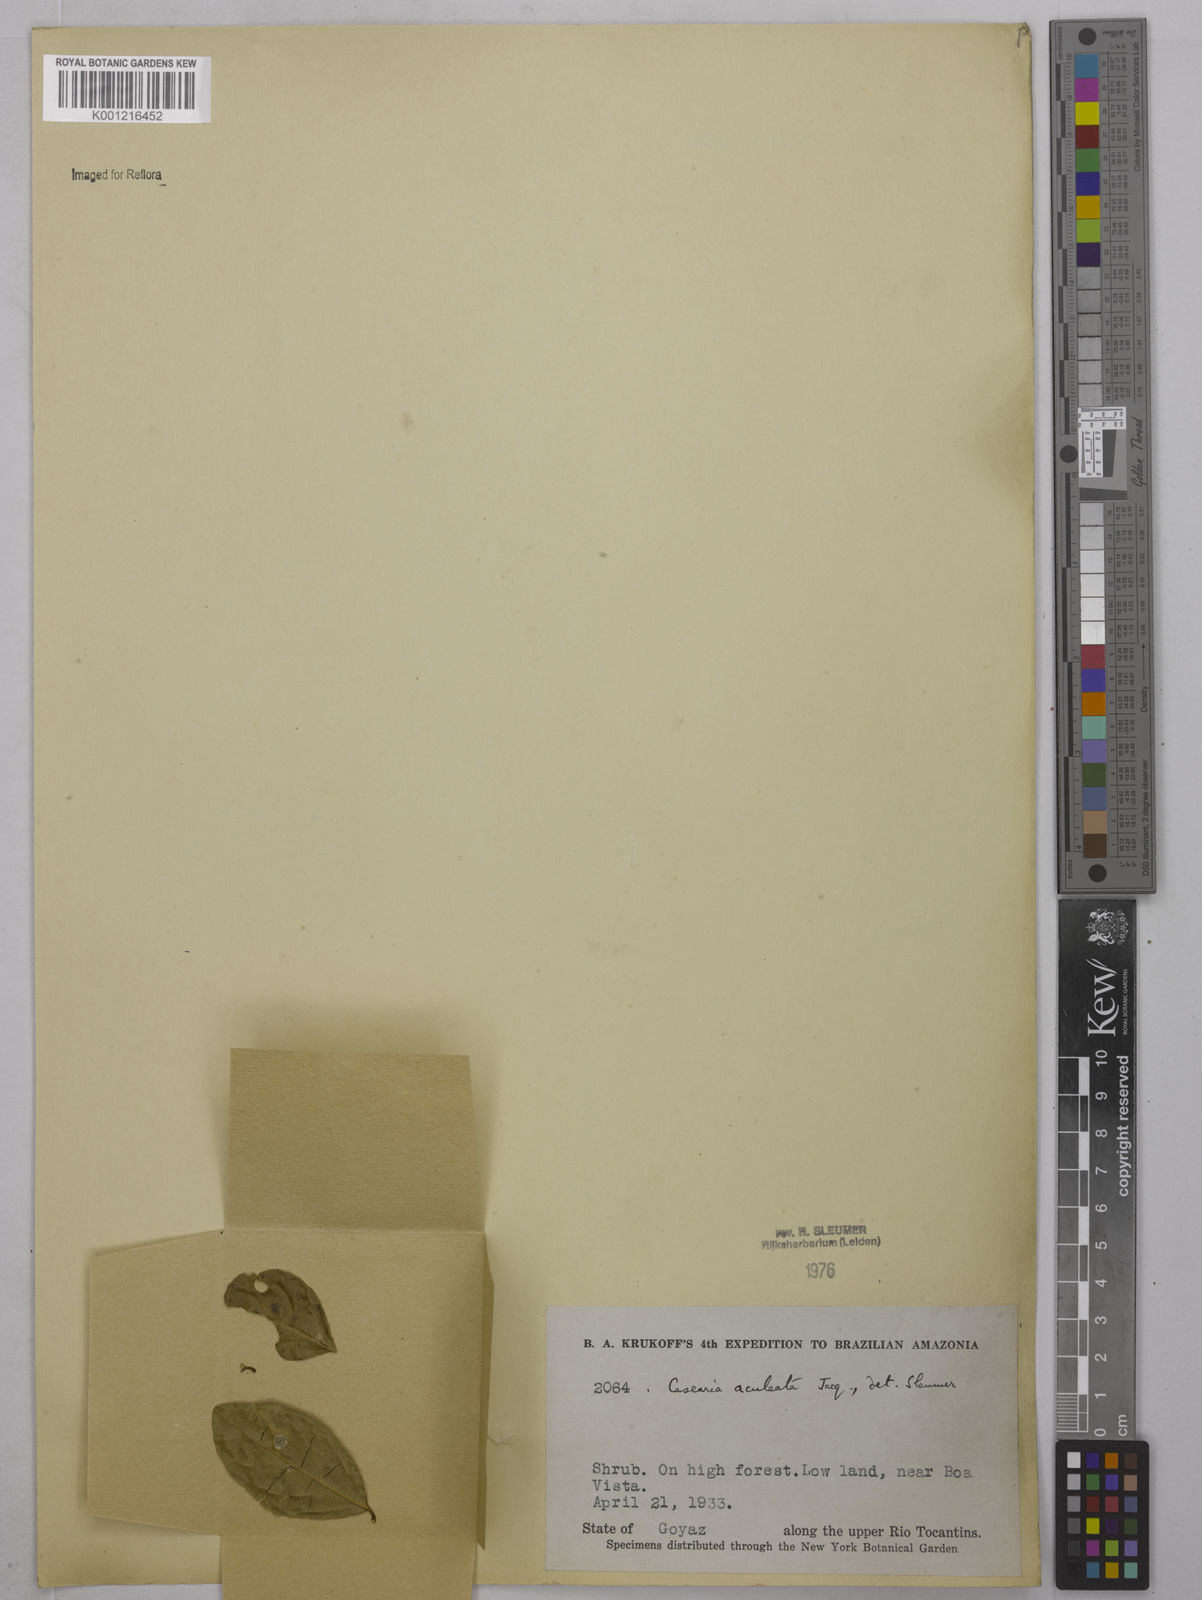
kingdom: Plantae
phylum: Tracheophyta
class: Magnoliopsida
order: Malpighiales
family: Salicaceae
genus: Casearia
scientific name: Casearia aculeata
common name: Cockspur
